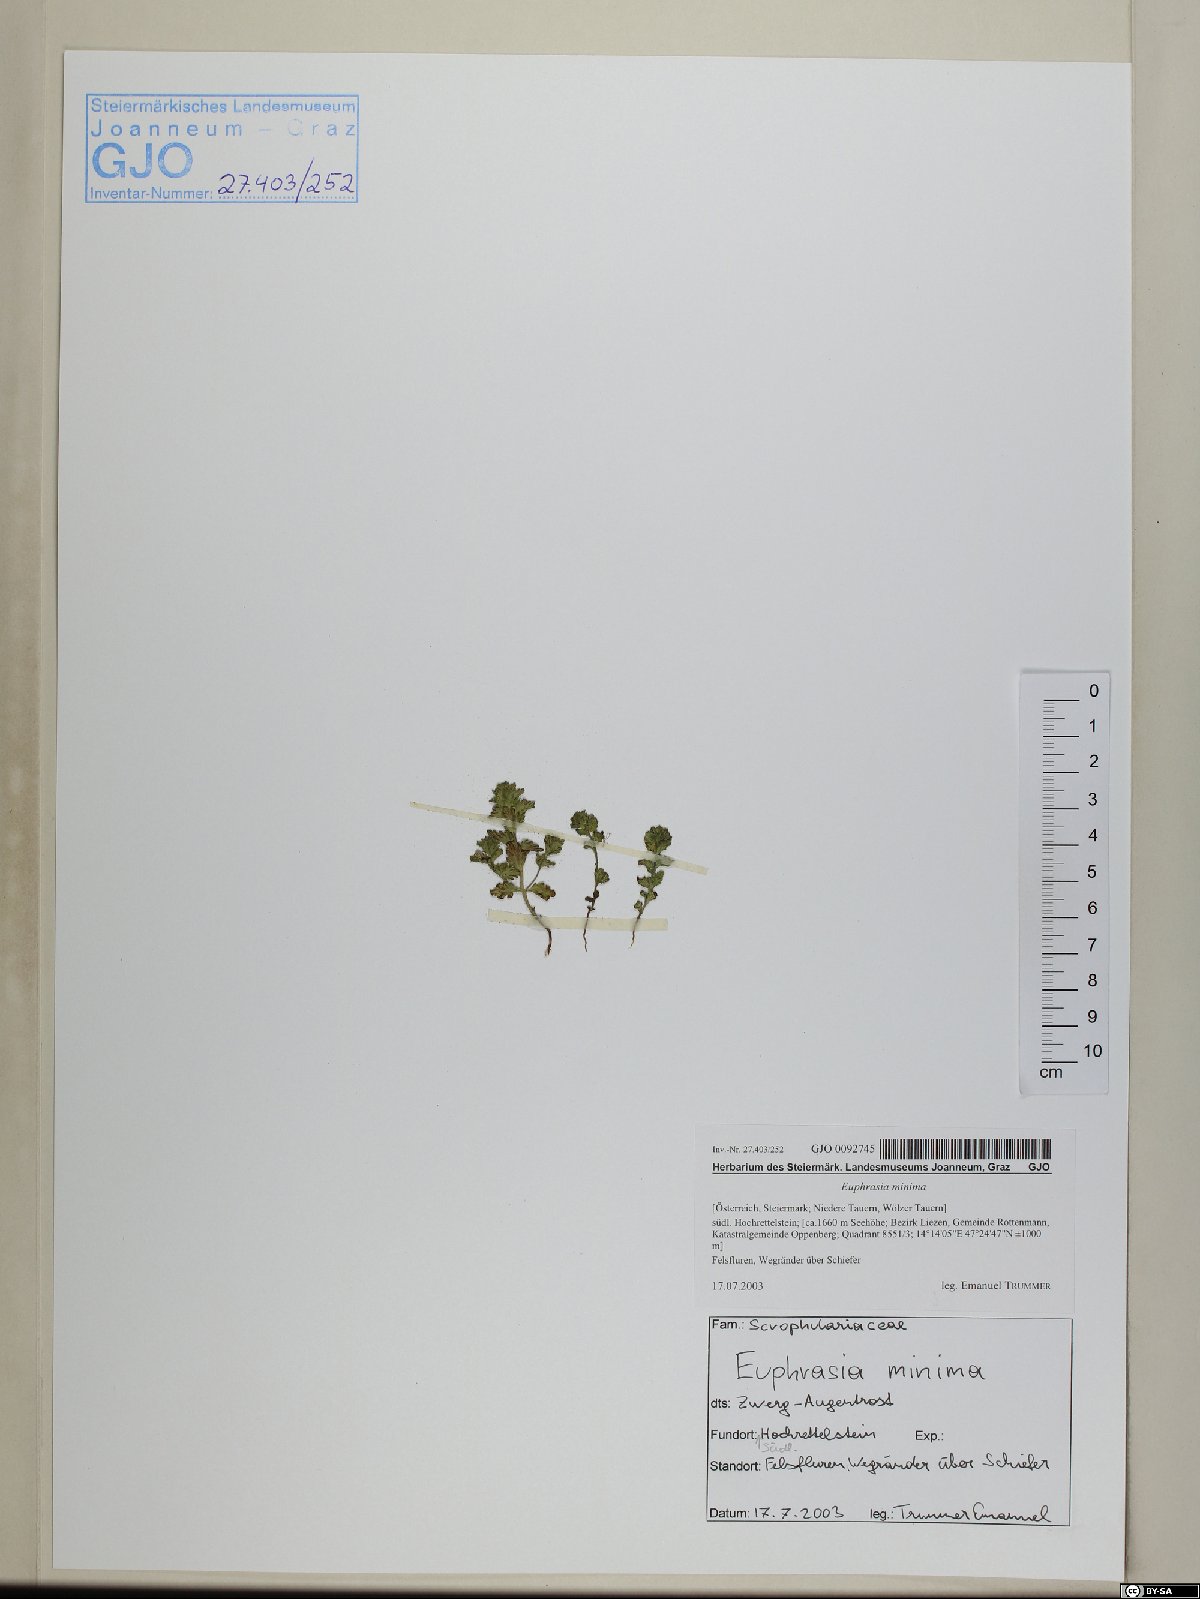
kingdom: Plantae
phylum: Tracheophyta
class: Magnoliopsida
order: Lamiales
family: Orobanchaceae
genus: Euphrasia
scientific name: Euphrasia minima
